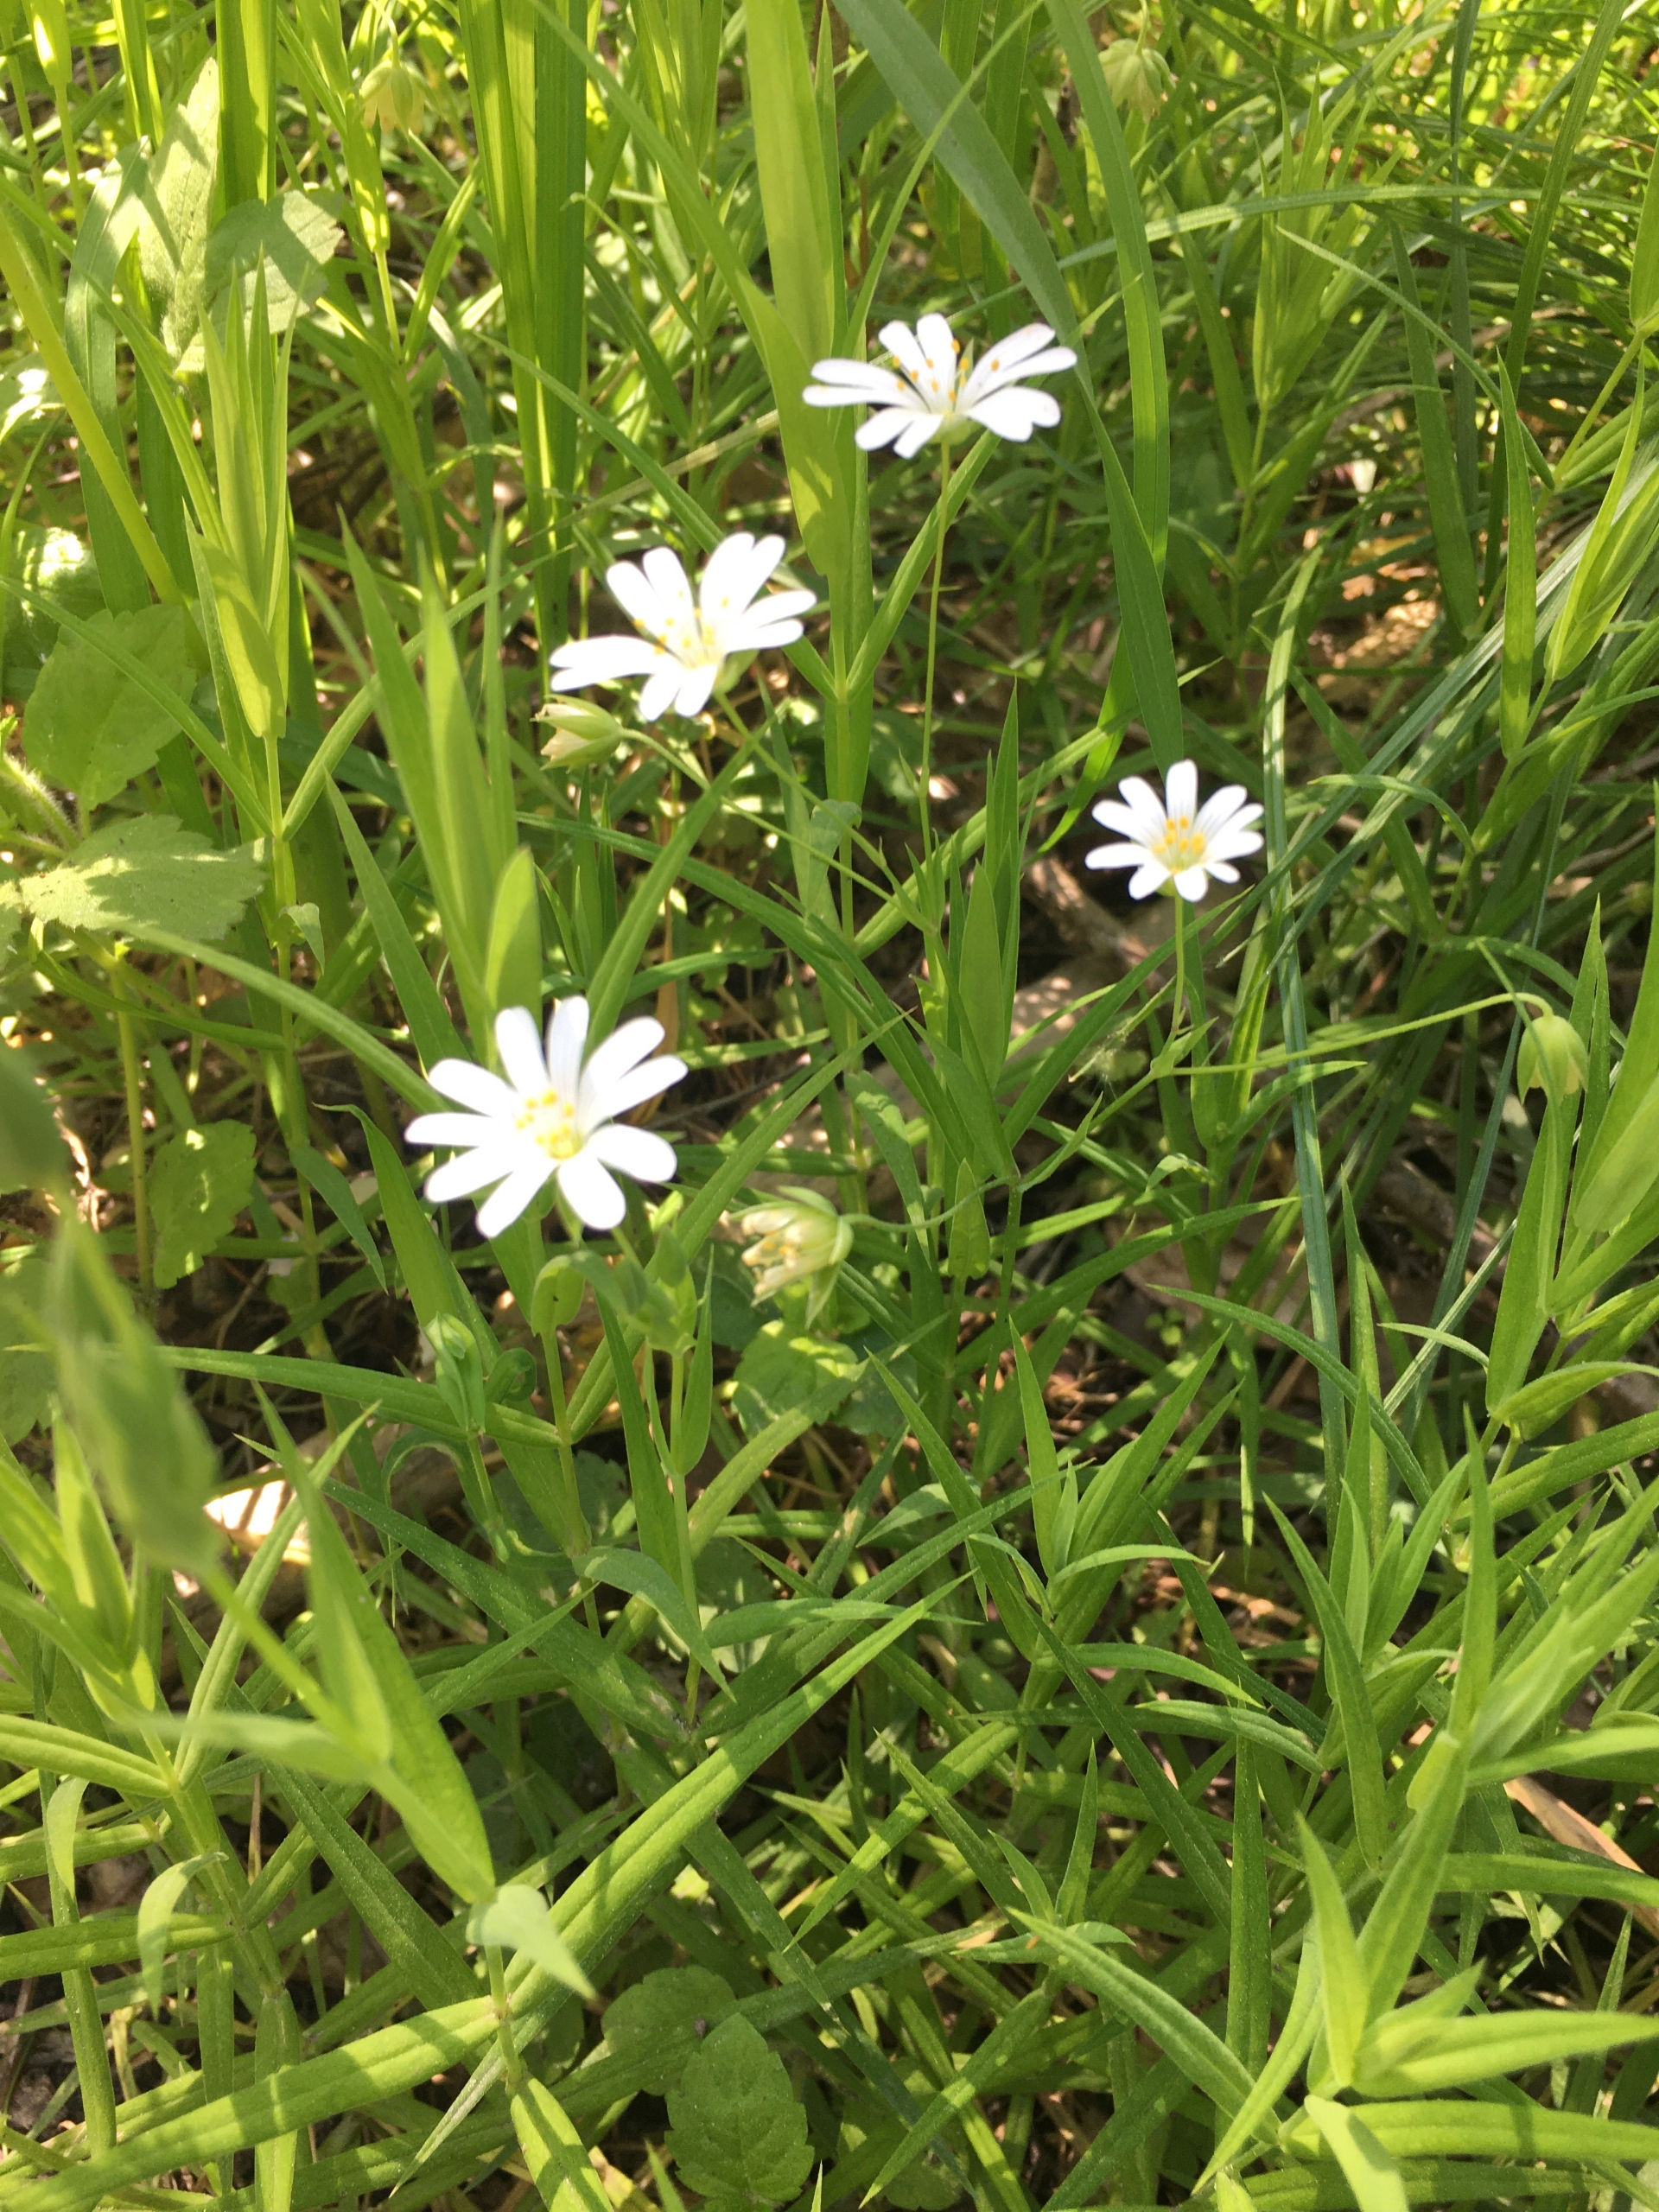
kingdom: Plantae
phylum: Tracheophyta
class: Magnoliopsida
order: Caryophyllales
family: Caryophyllaceae
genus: Rabelera
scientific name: Rabelera holostea
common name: Stor fladstjerne
